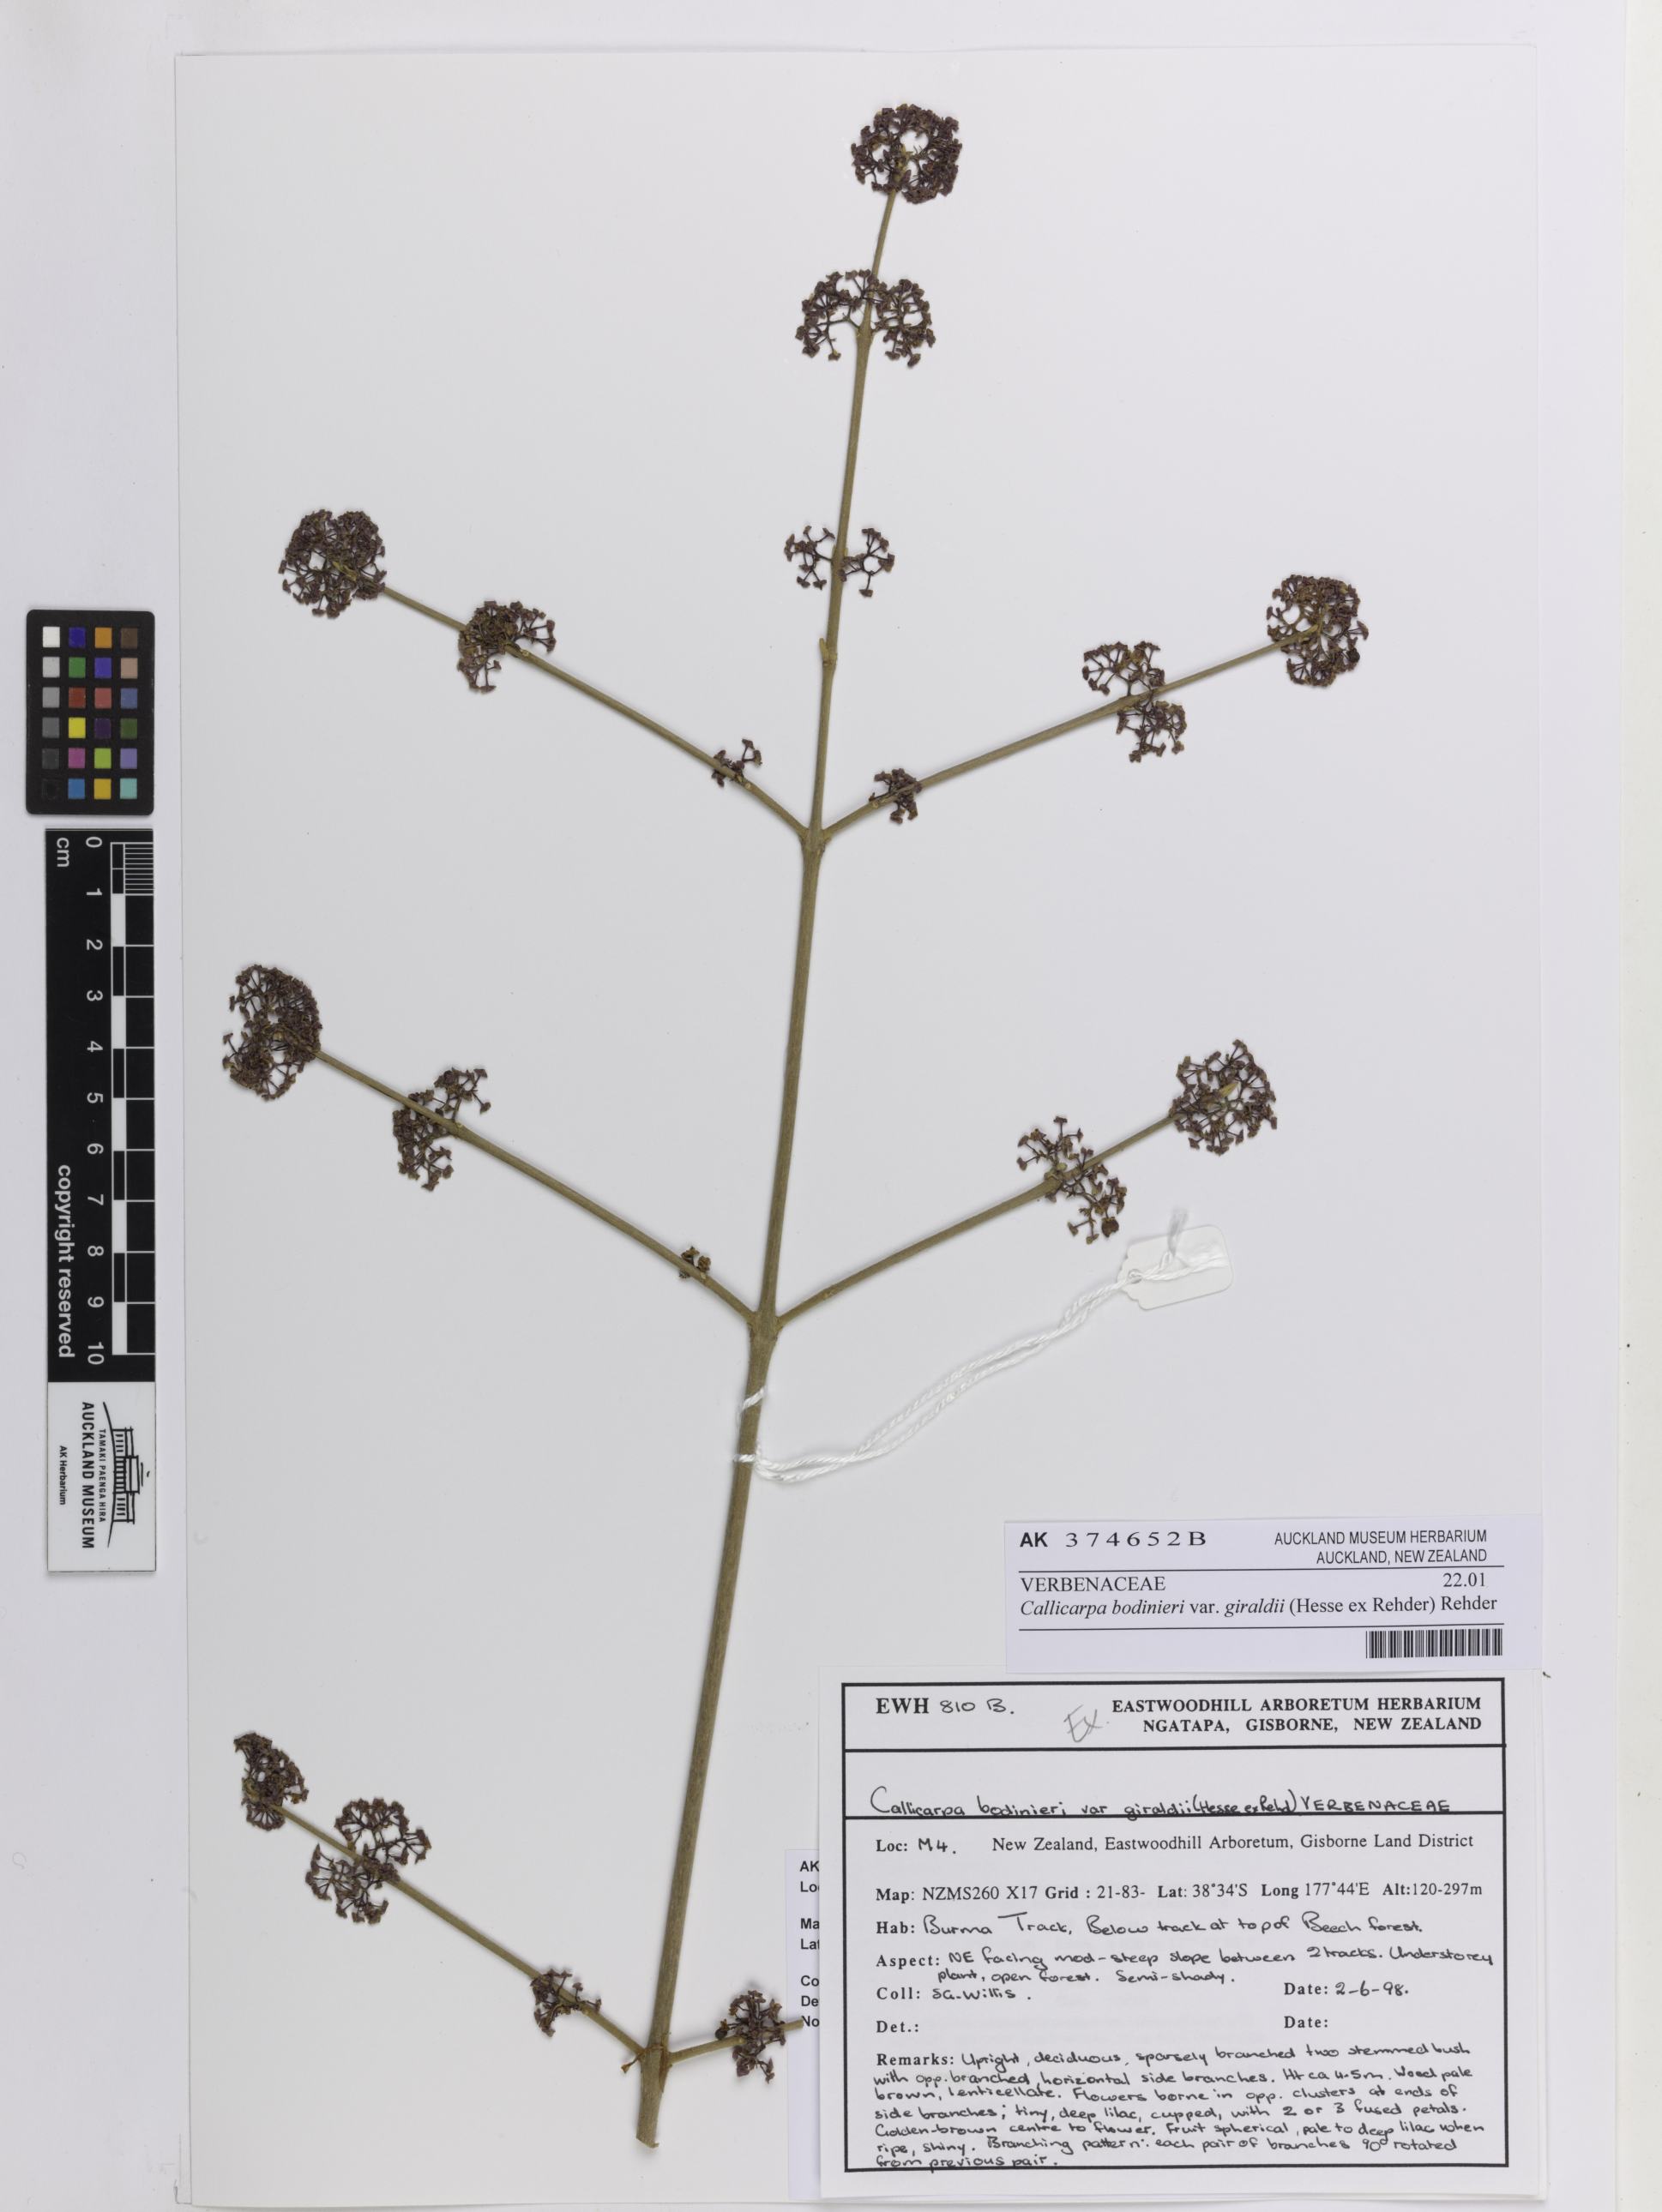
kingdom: Plantae
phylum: Tracheophyta
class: Magnoliopsida
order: Lamiales
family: Lamiaceae
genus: Callicarpa
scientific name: Callicarpa giraldii
